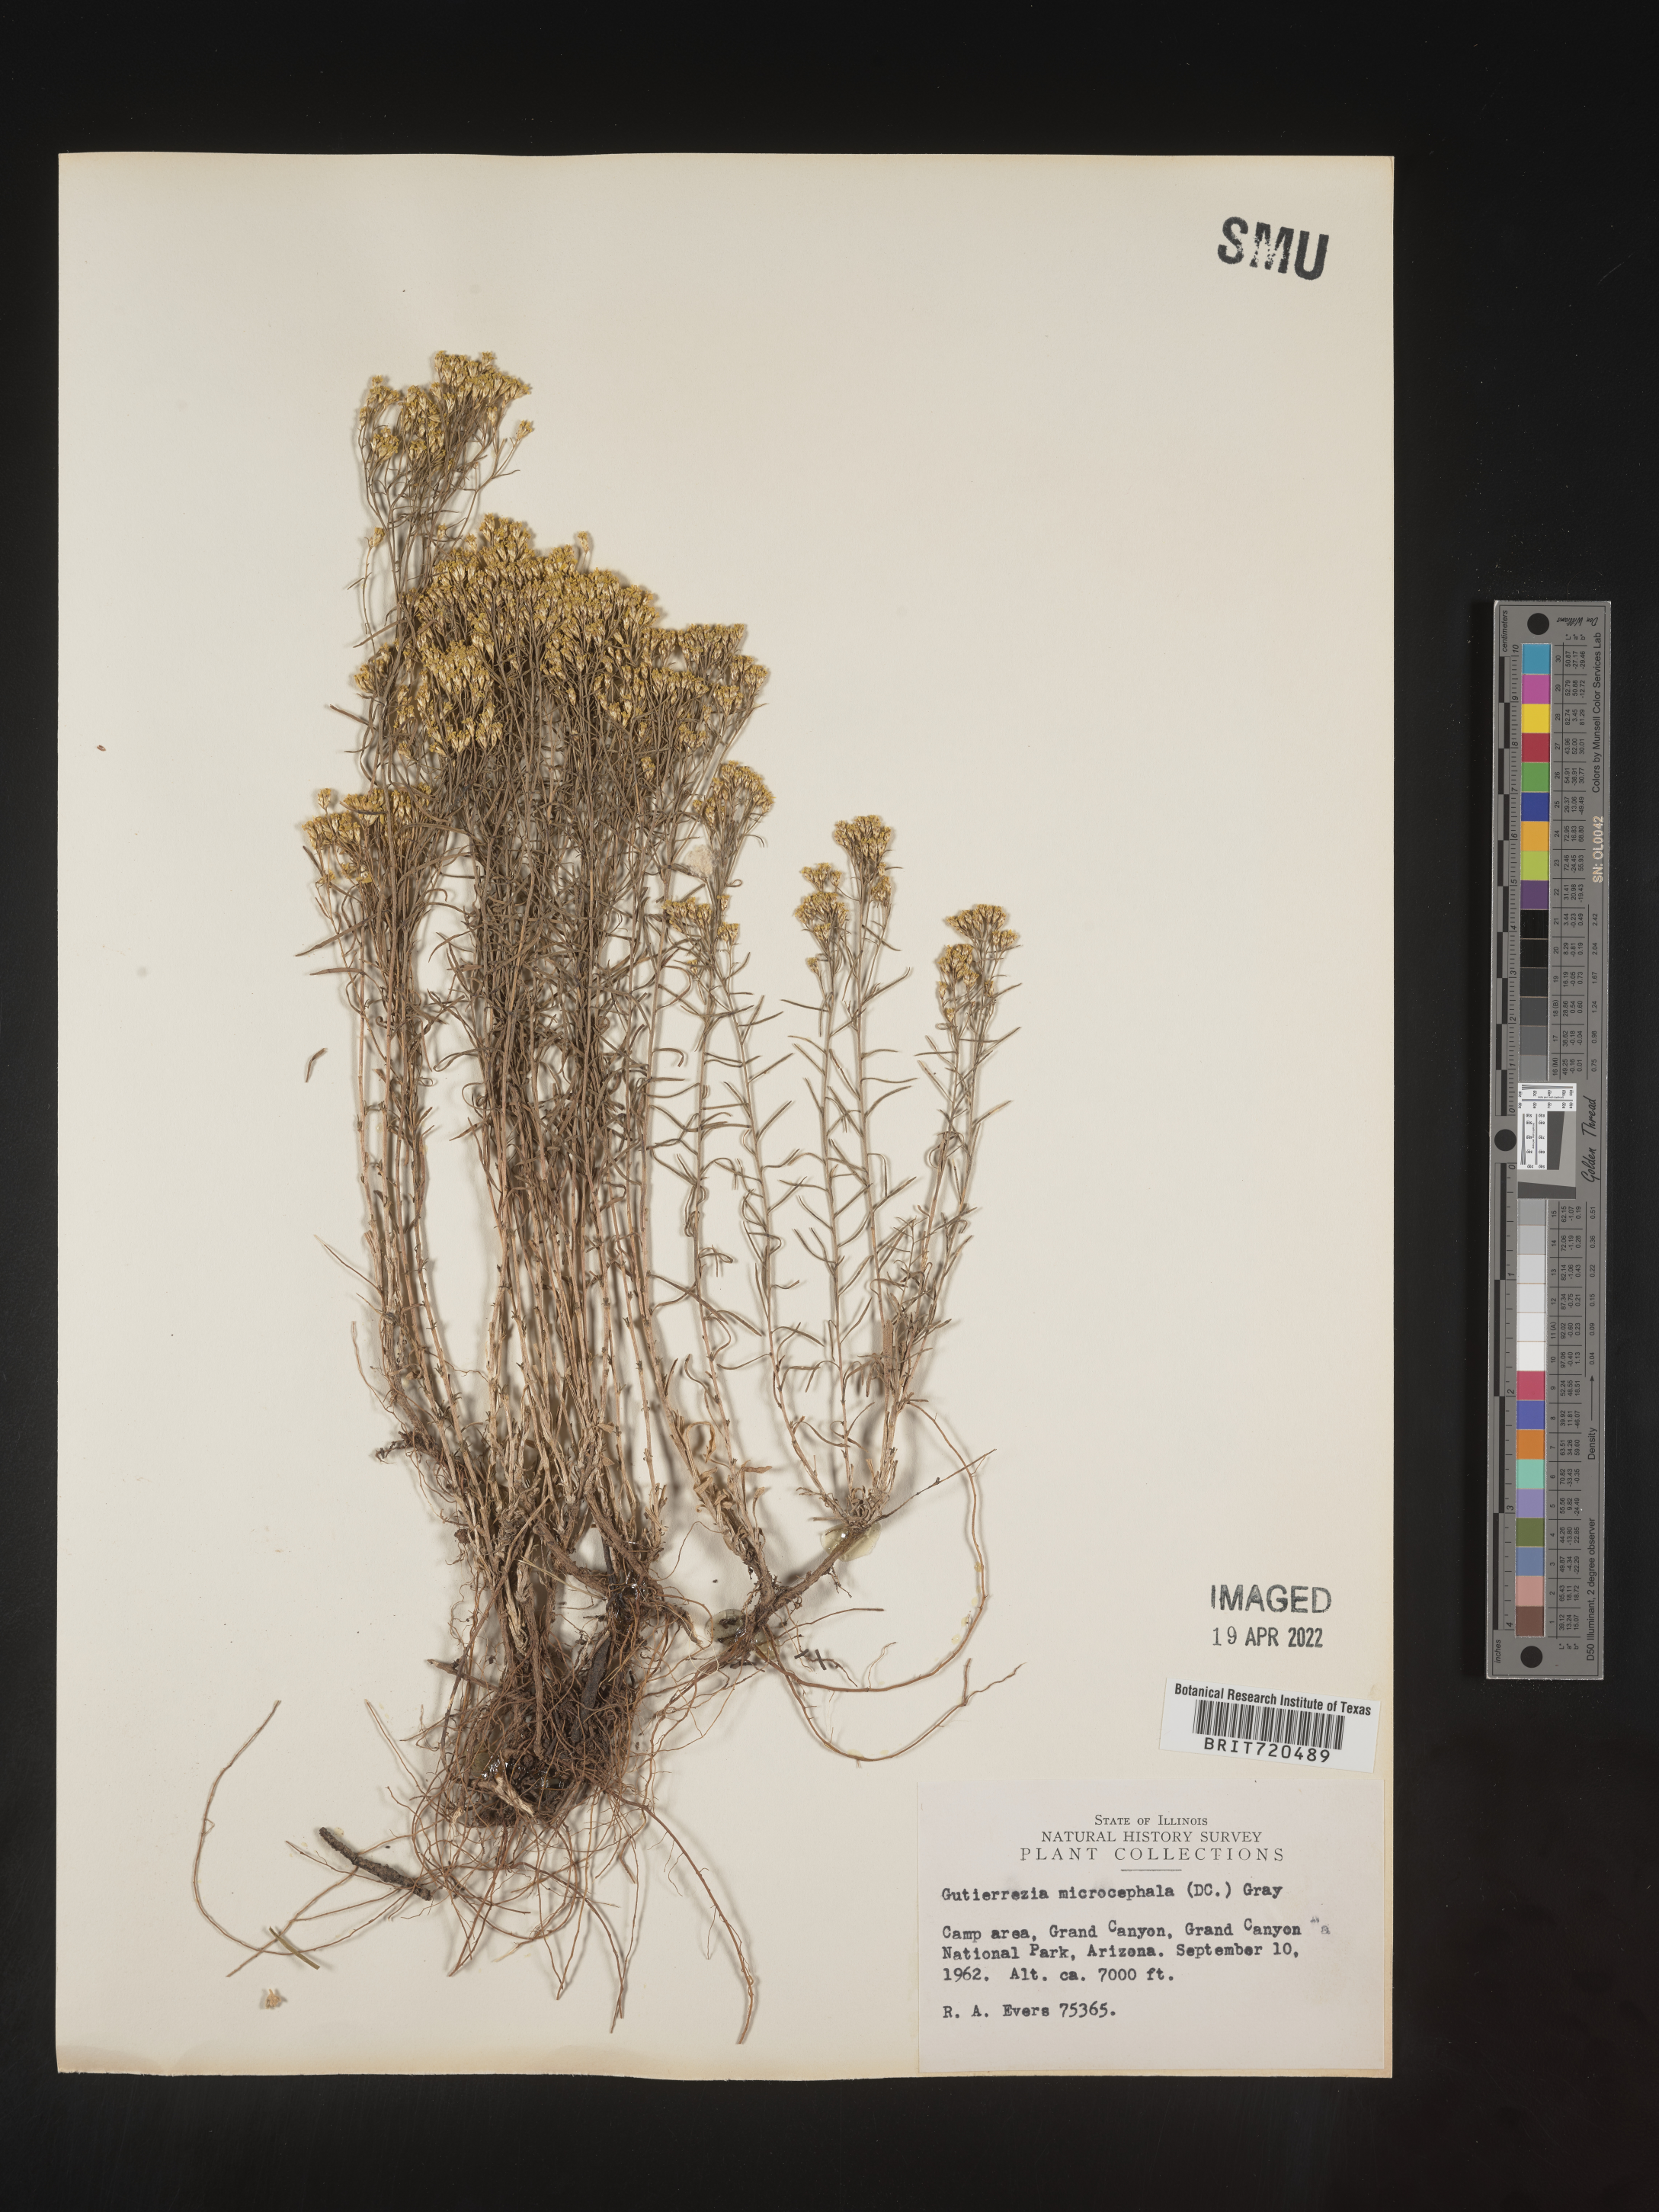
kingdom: Plantae
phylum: Tracheophyta
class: Magnoliopsida
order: Asterales
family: Asteraceae
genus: Gutierrezia
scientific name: Gutierrezia microcephala
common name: Thread snakeweed
